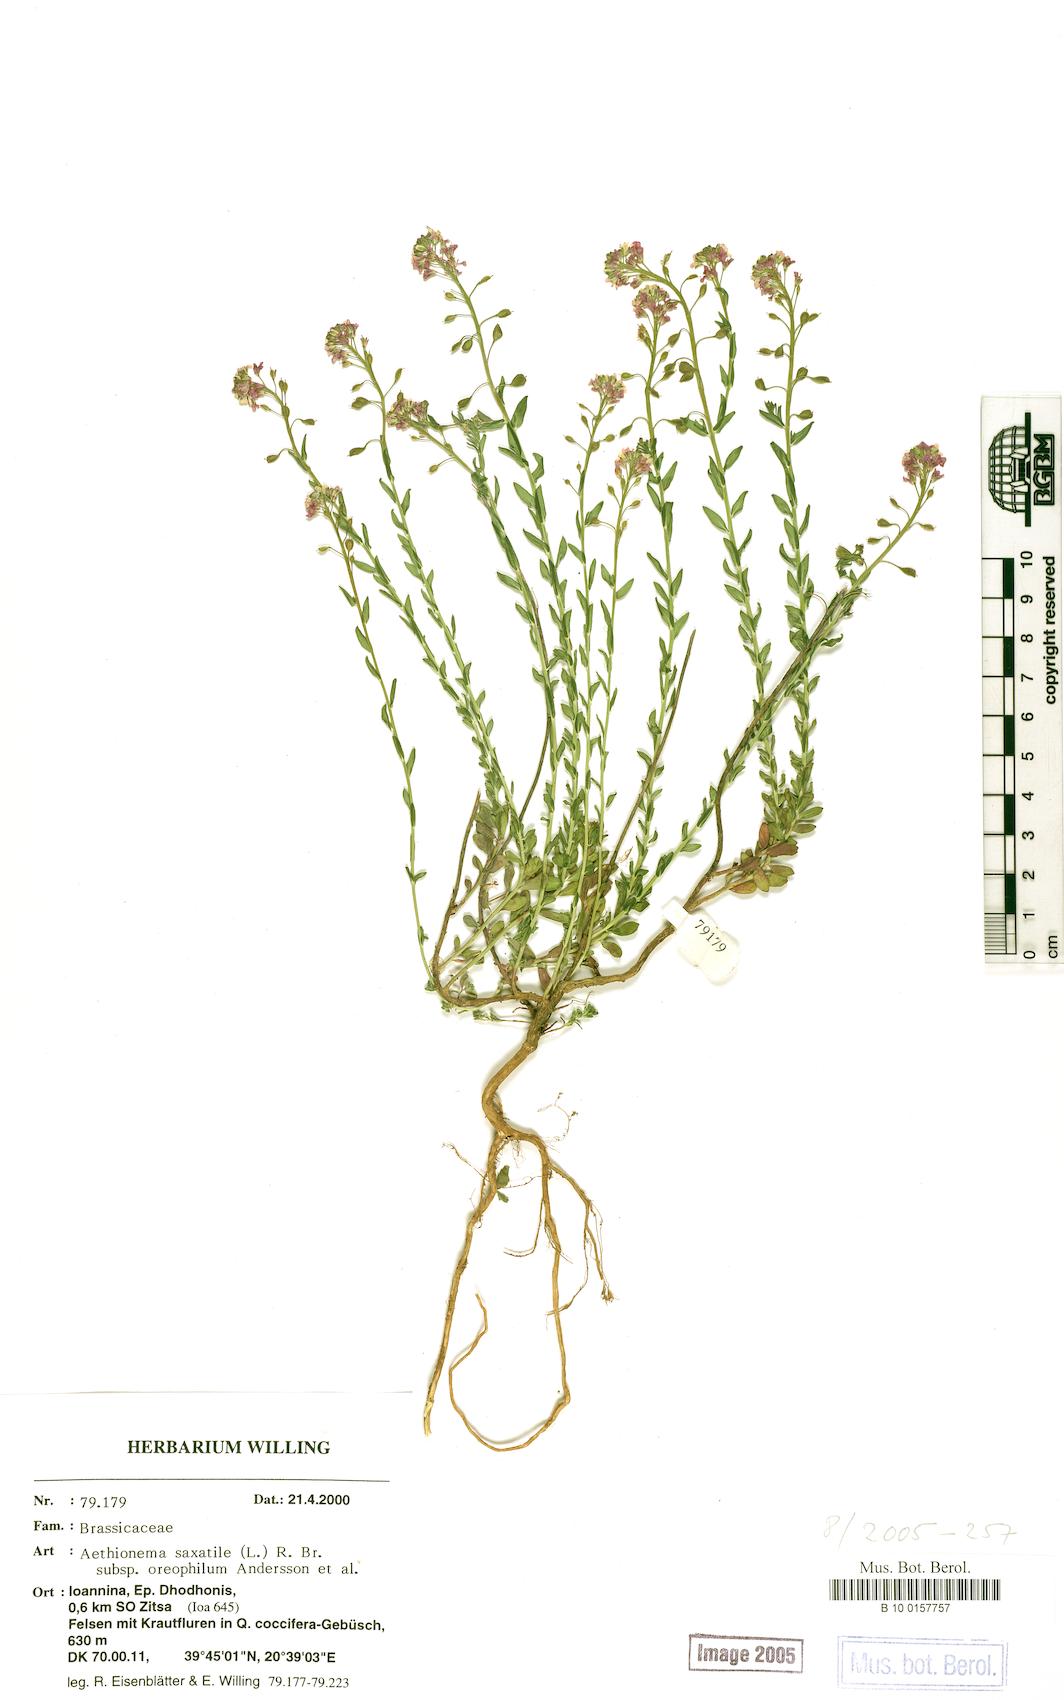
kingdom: Plantae
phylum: Tracheophyta
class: Magnoliopsida
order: Brassicales
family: Brassicaceae
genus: Aethionema
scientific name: Aethionema saxatile
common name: Burnt candytuft
